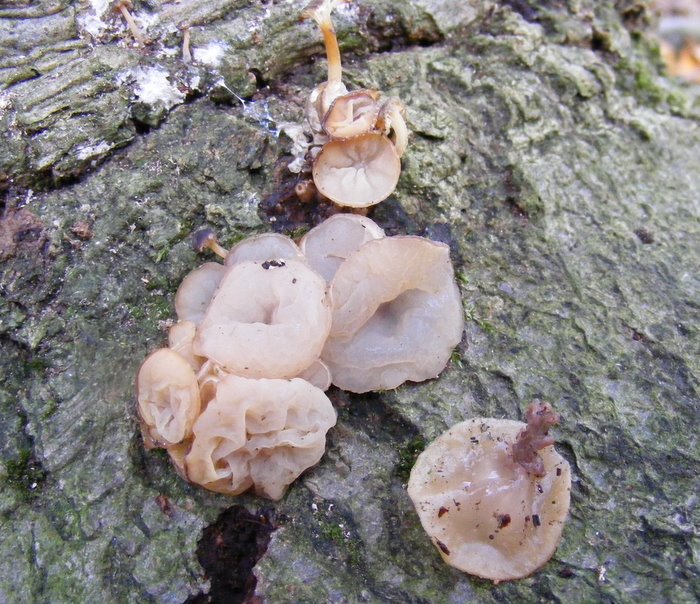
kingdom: Fungi
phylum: Ascomycota
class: Leotiomycetes
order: Helotiales
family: Gelatinodiscaceae
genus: Neobulgaria
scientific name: Neobulgaria pura
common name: bleg bævreskive
